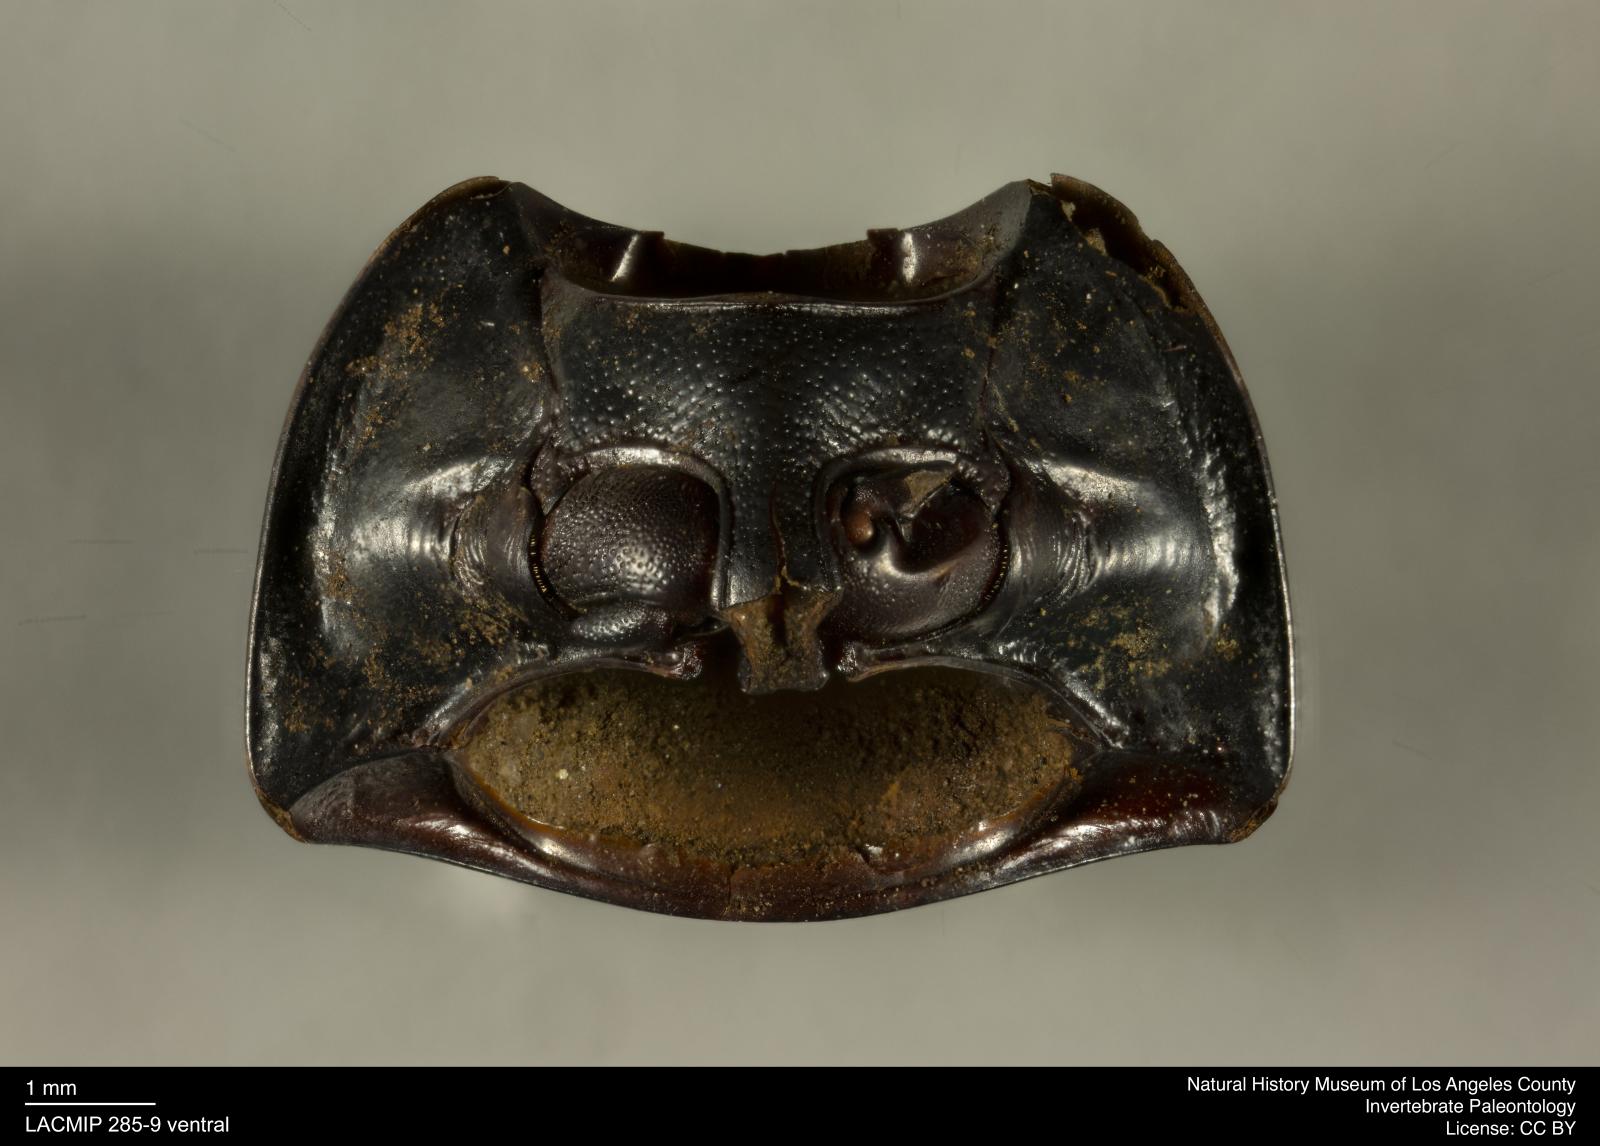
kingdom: Animalia
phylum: Arthropoda
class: Insecta
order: Coleoptera
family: Tenebrionidae
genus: Coniontis
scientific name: Coniontis abdominalis
